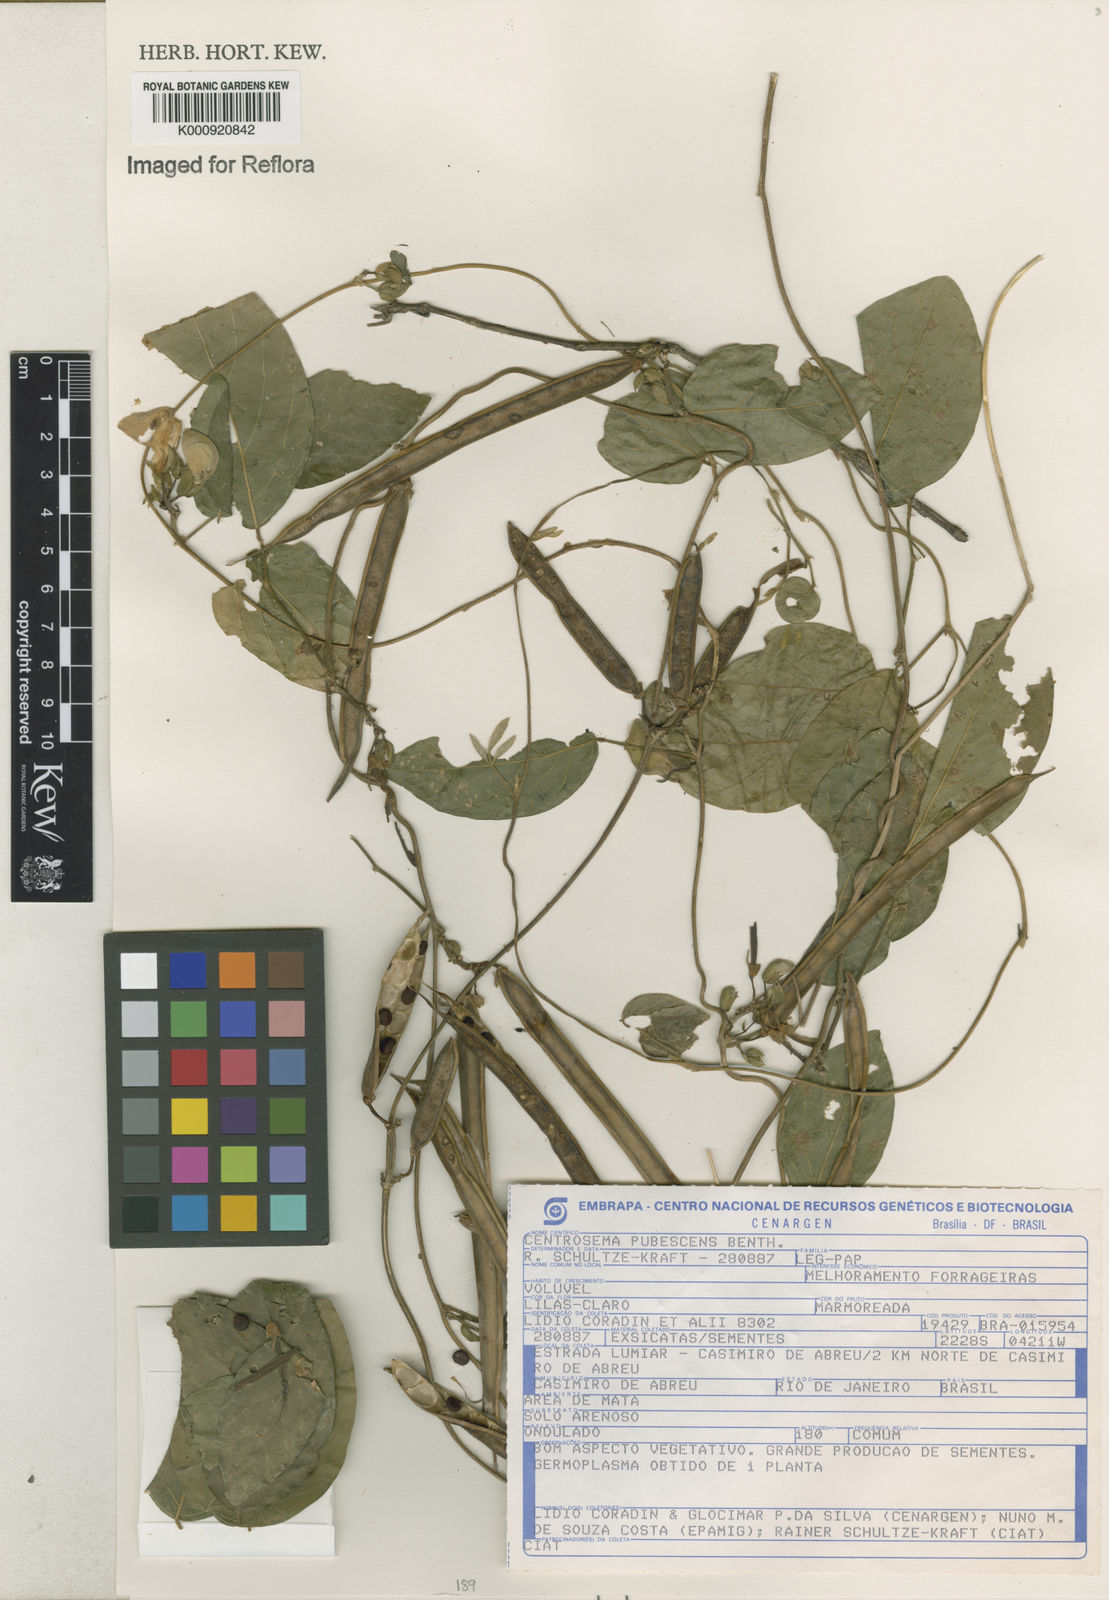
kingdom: Plantae
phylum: Tracheophyta
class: Magnoliopsida
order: Fabales
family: Fabaceae
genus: Centrosema
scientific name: Centrosema pubescens
